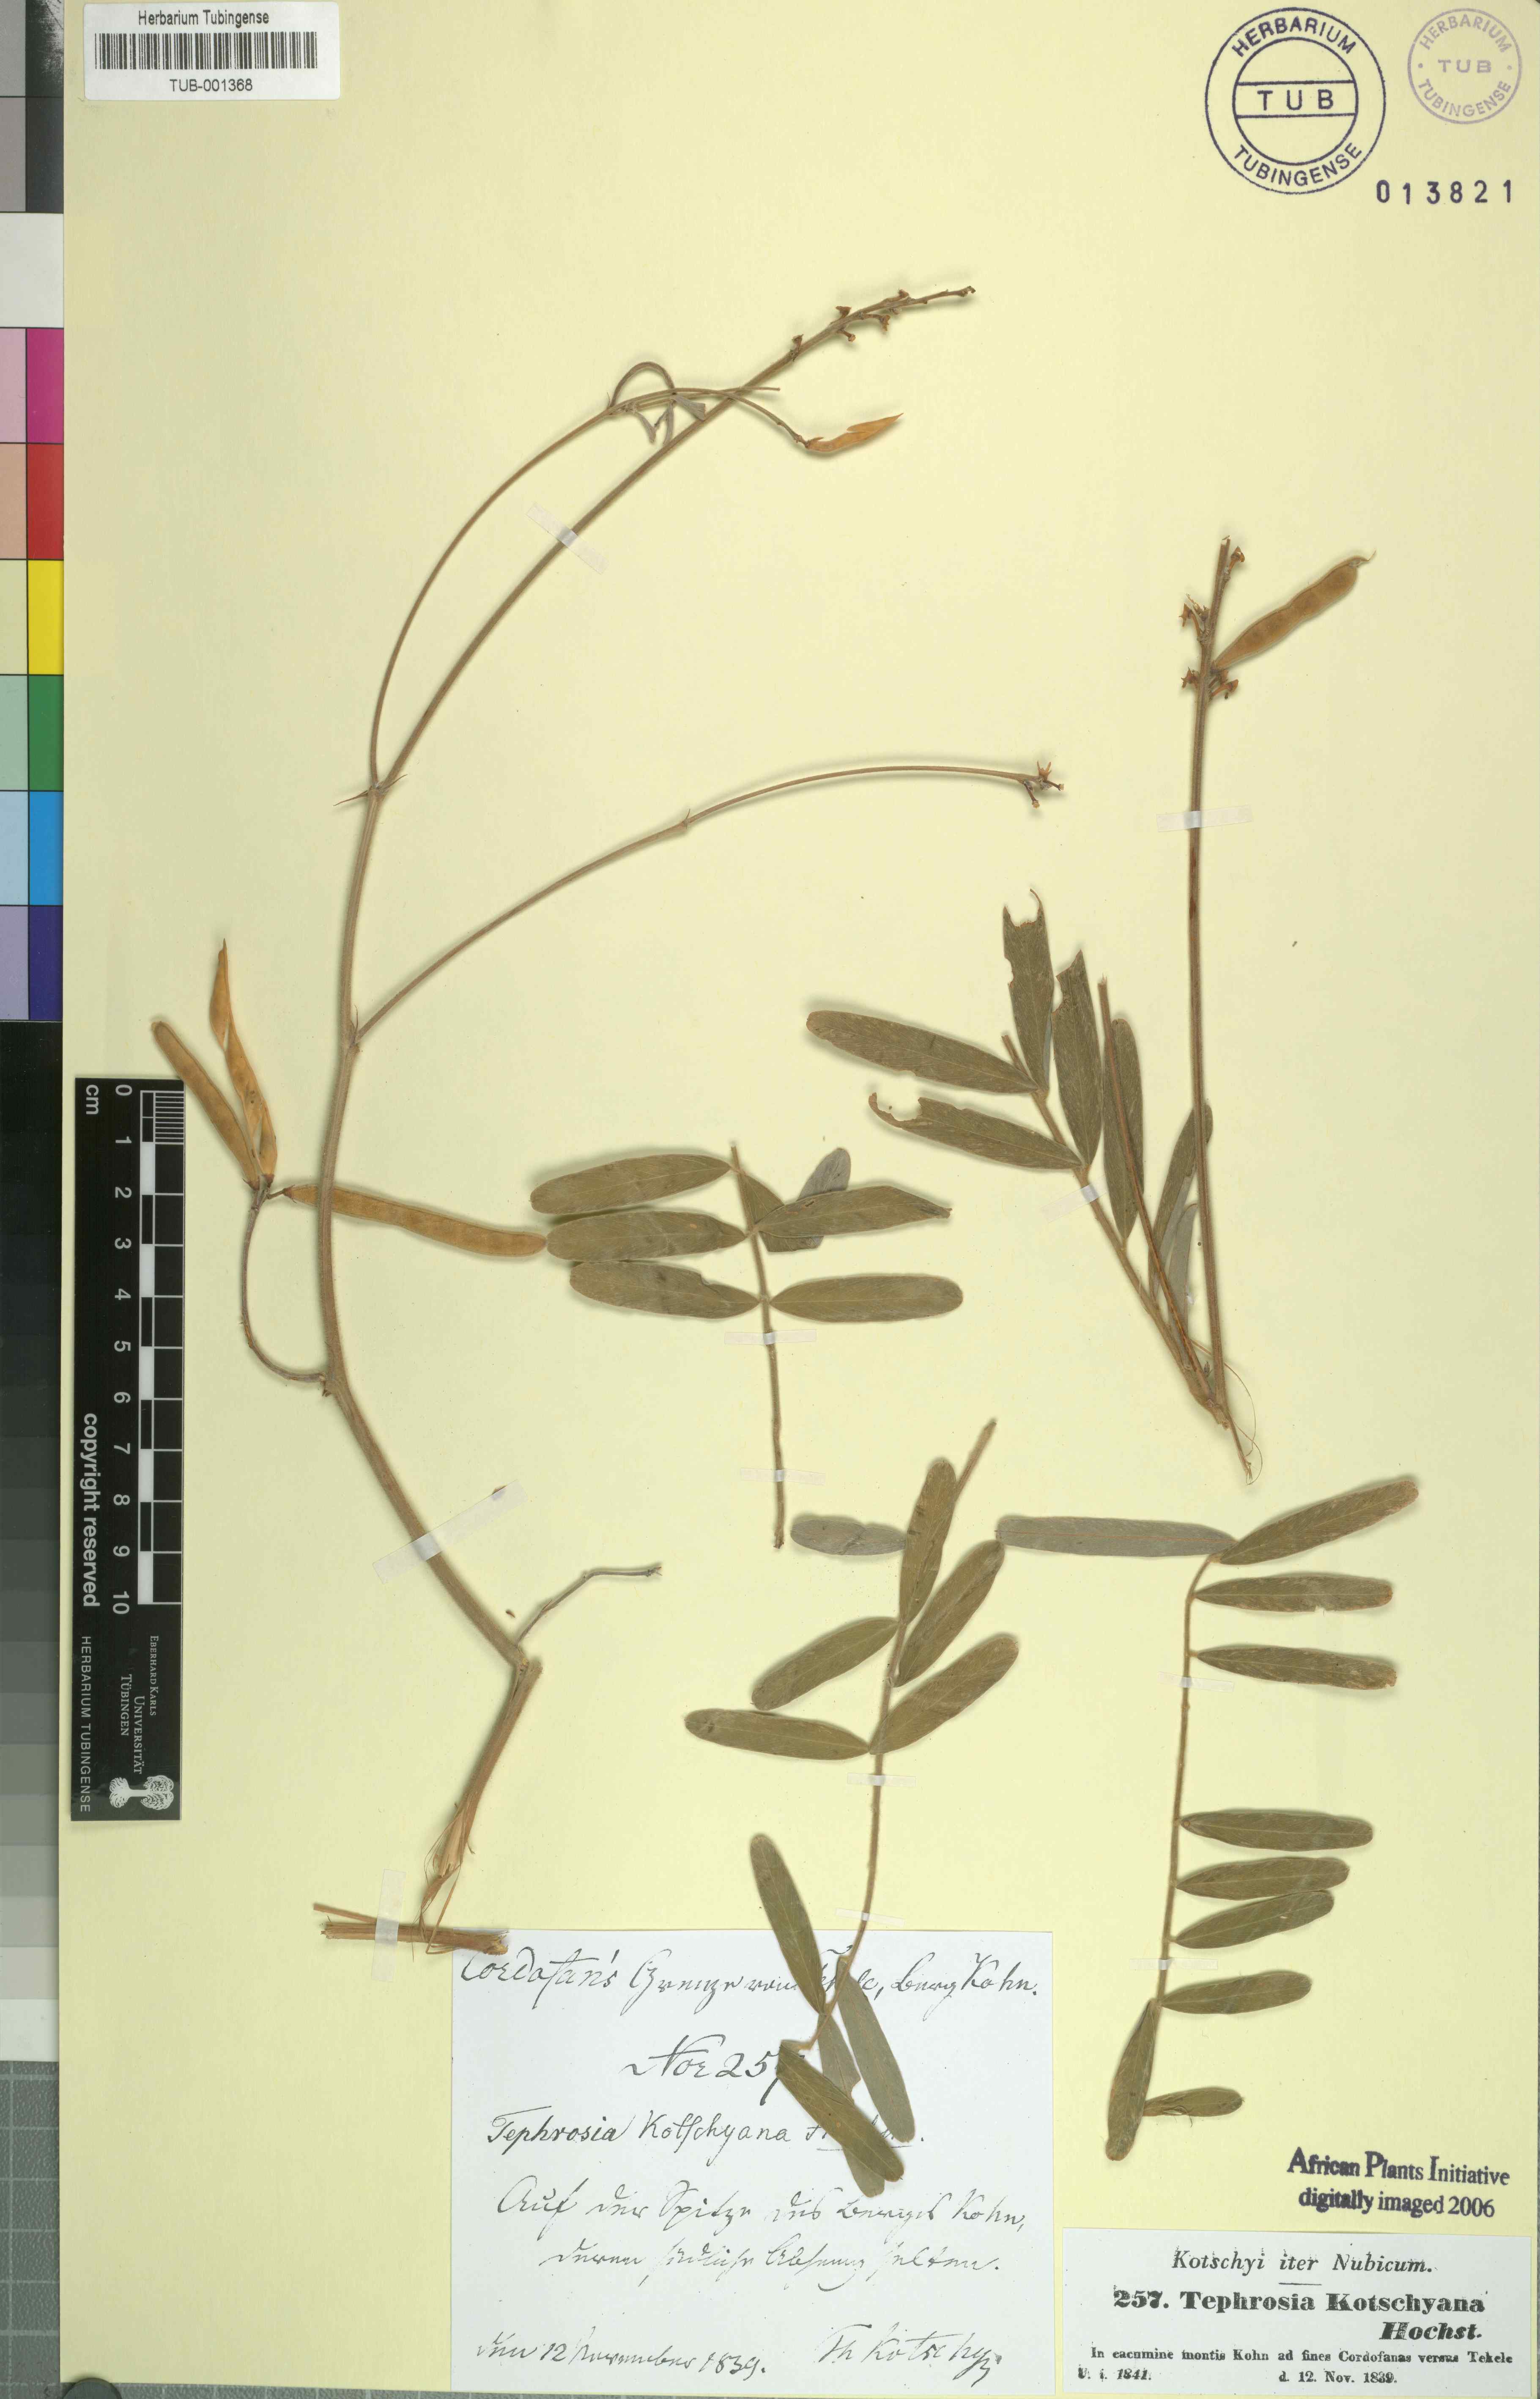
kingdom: Plantae
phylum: Tracheophyta
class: Magnoliopsida
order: Fabales
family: Fabaceae
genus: Tephrosia
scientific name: Tephrosia bracteolata
